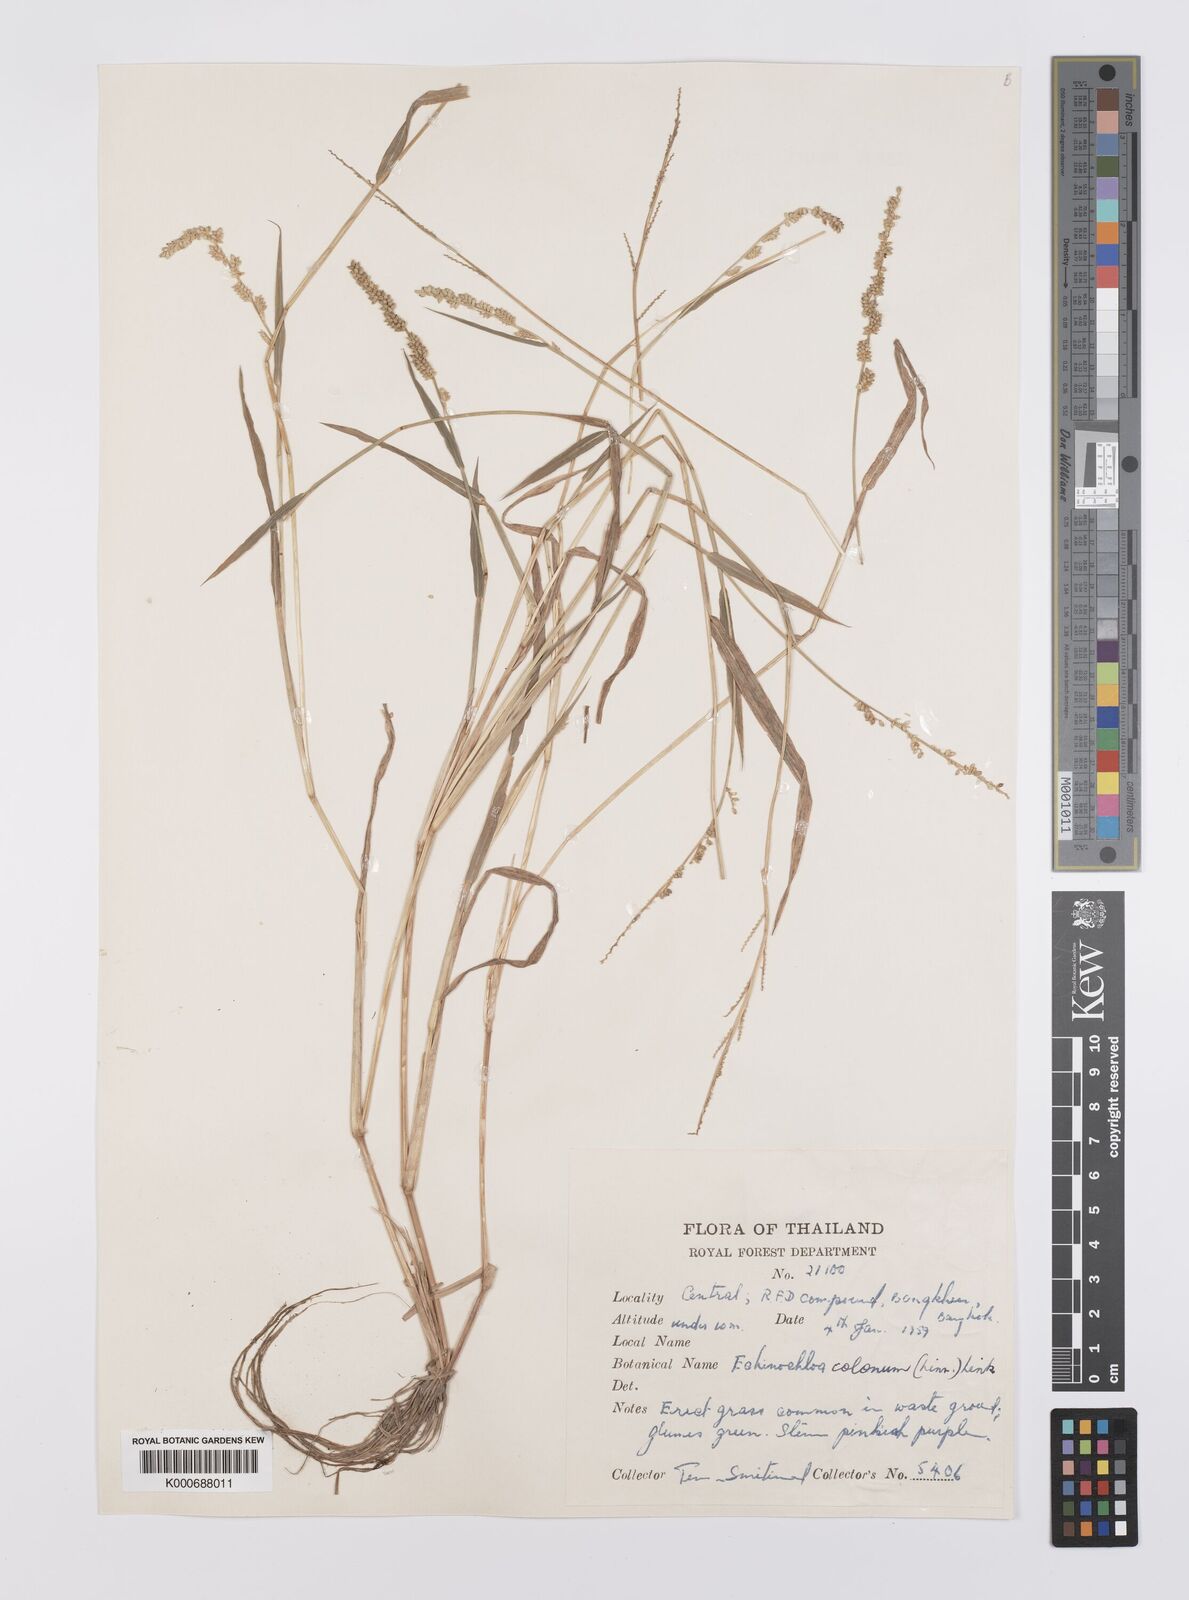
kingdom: Plantae
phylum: Tracheophyta
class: Liliopsida
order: Poales
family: Poaceae
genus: Echinochloa
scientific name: Echinochloa colonum
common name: Jungle rice
